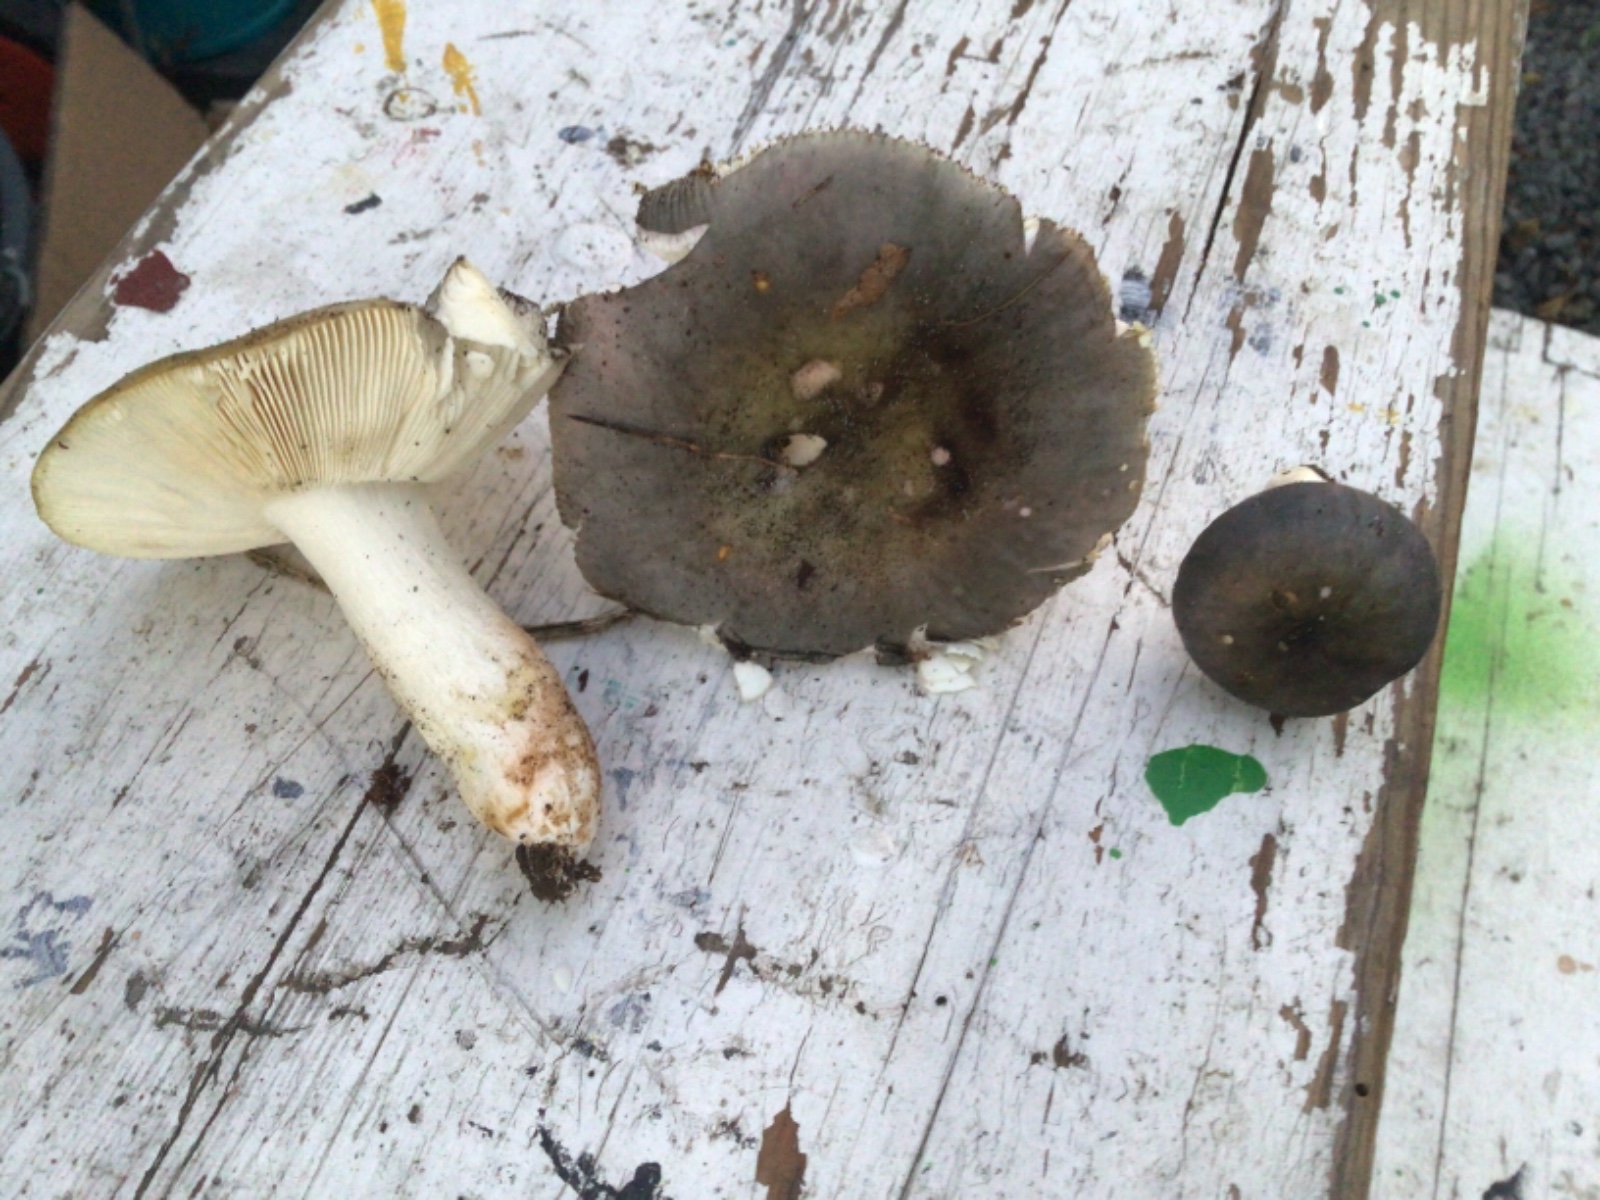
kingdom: Fungi
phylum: Basidiomycota
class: Agaricomycetes
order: Russulales
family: Russulaceae
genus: Russula
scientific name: Russula
